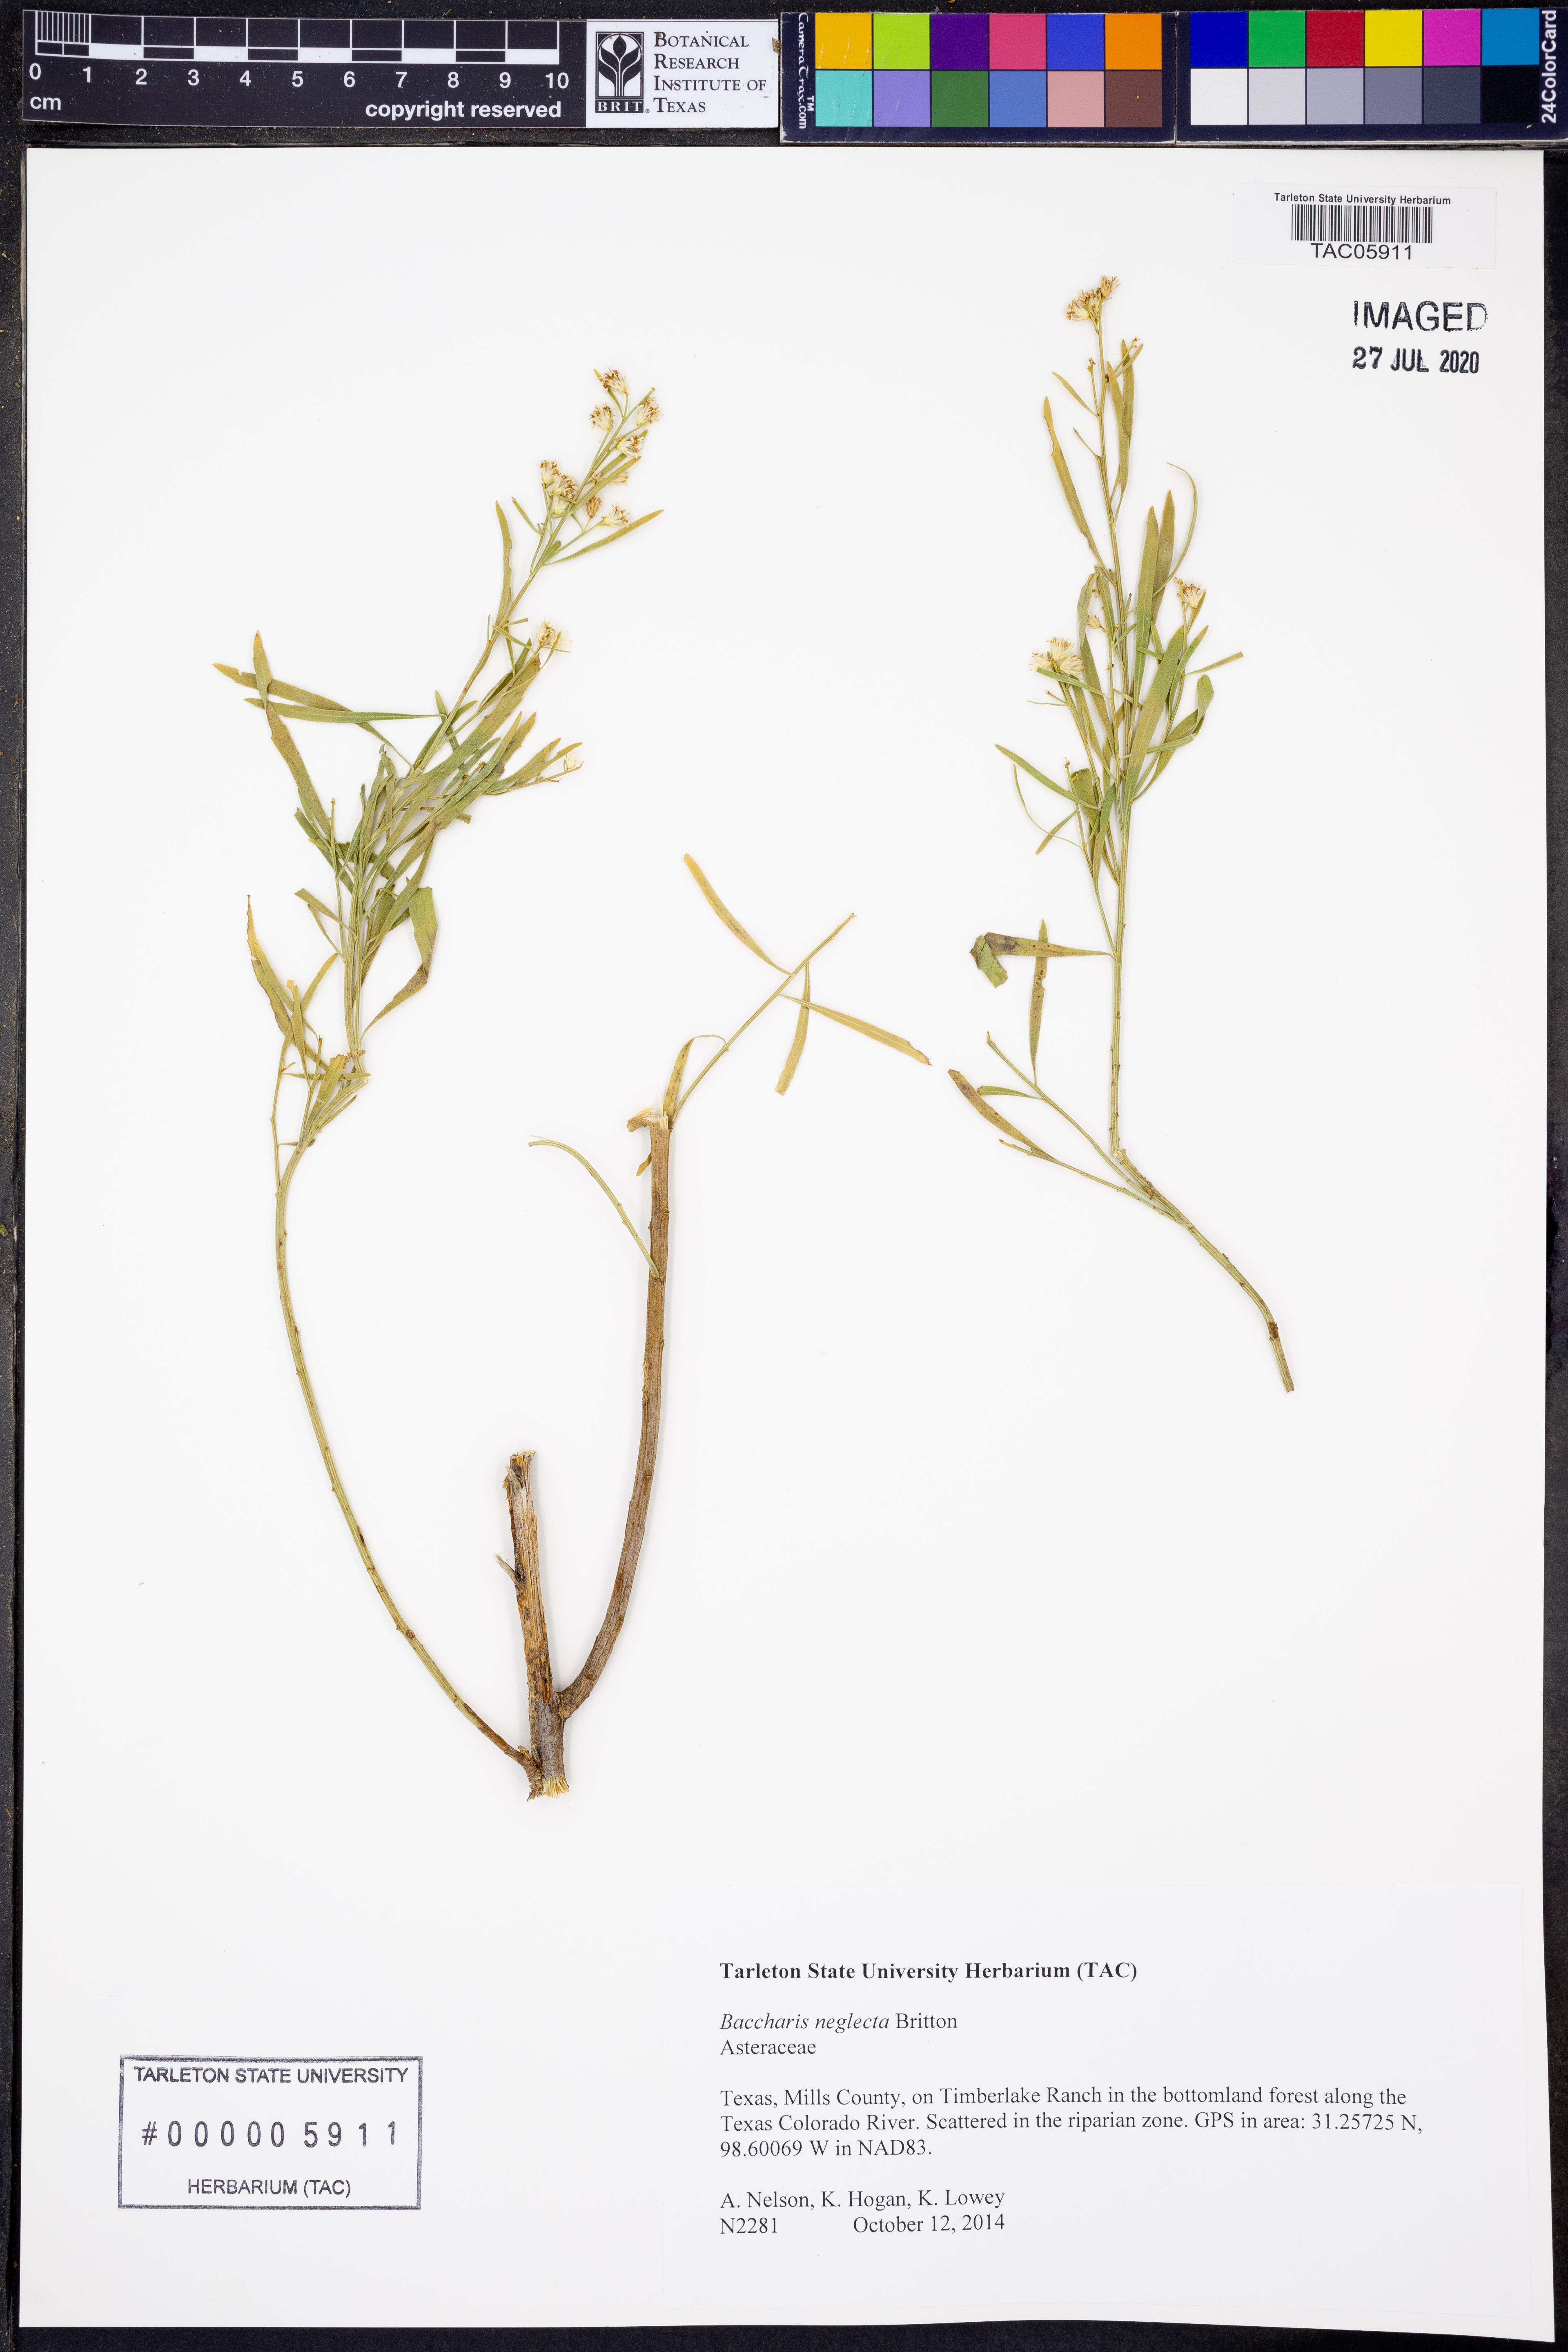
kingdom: Plantae
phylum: Tracheophyta
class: Magnoliopsida
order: Asterales
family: Asteraceae
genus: Baccharis
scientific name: Baccharis neglecta
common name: Roosevelt-weed
